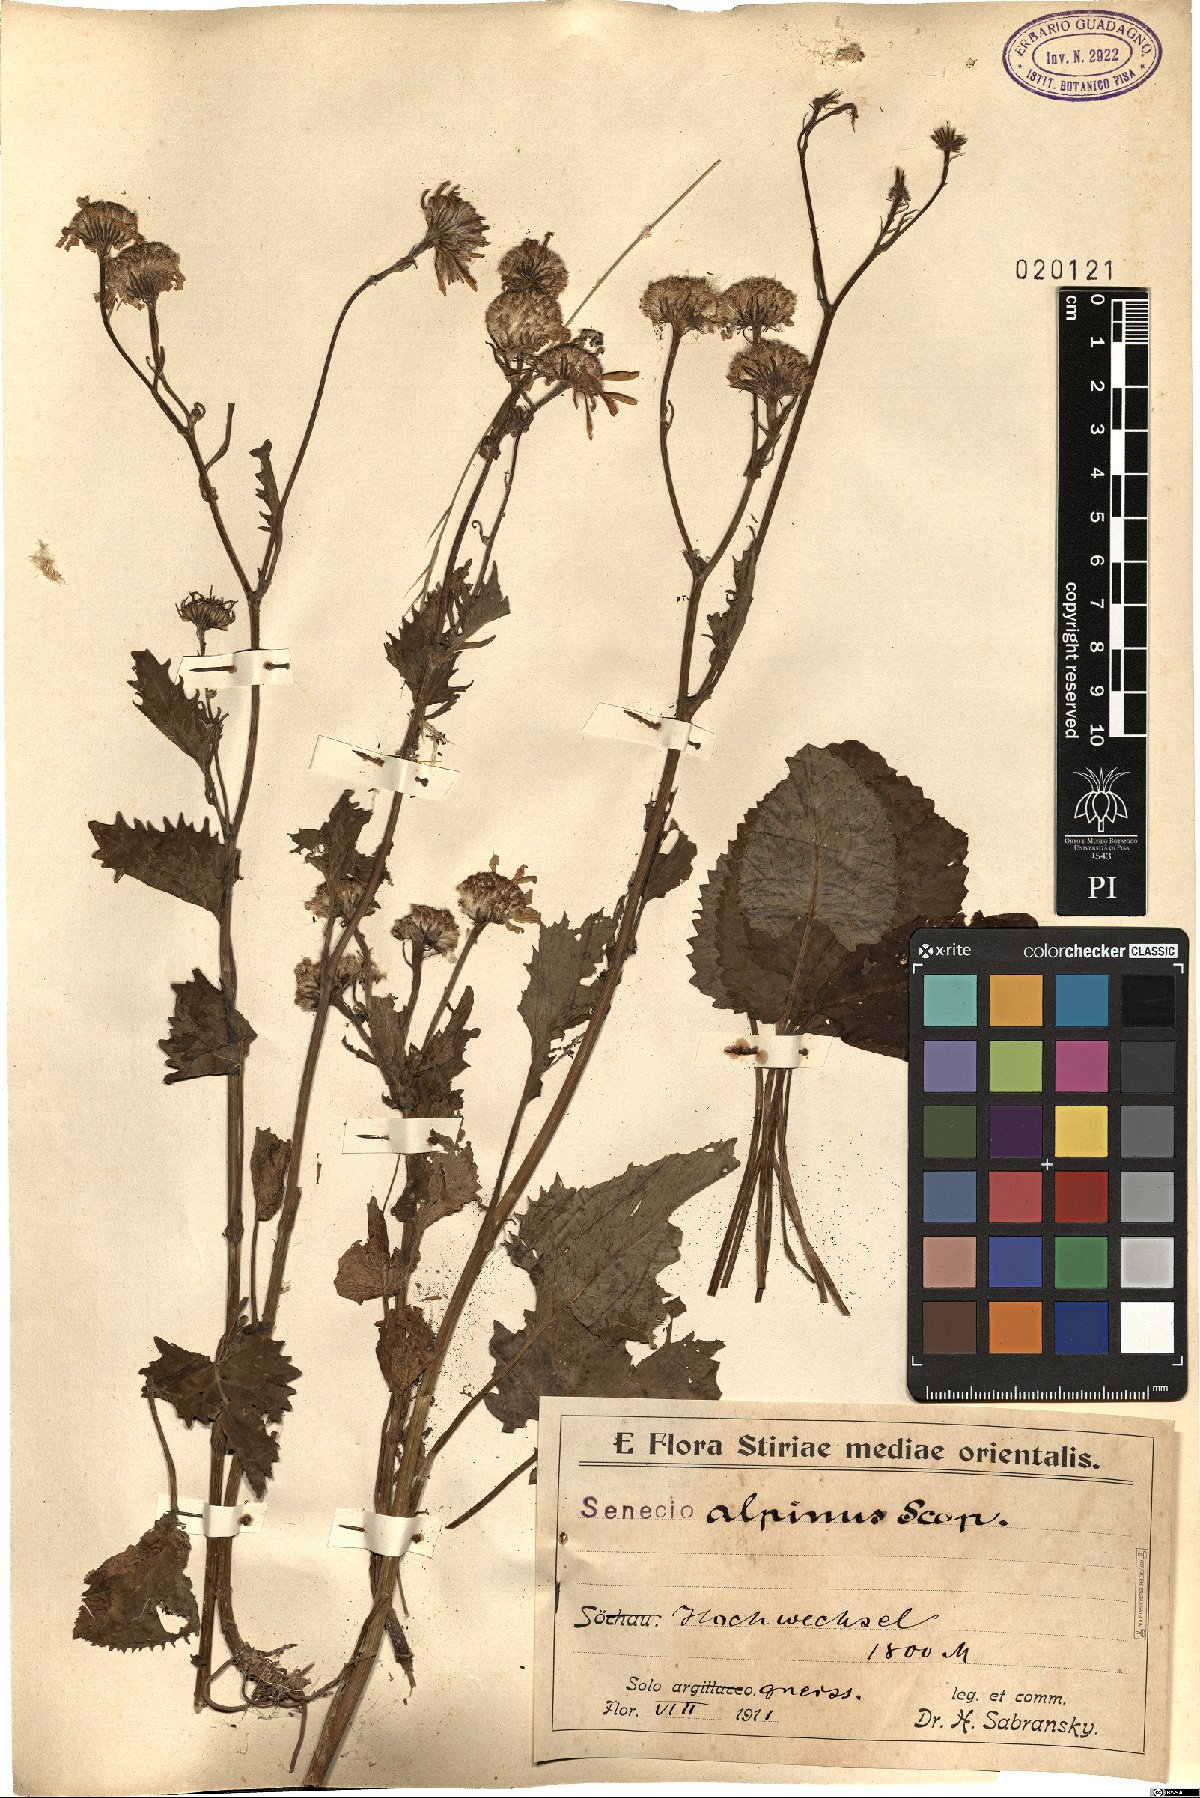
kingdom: Plantae
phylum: Tracheophyta
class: Magnoliopsida
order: Asterales
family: Asteraceae
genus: Jacobaea
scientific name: Jacobaea alpina
